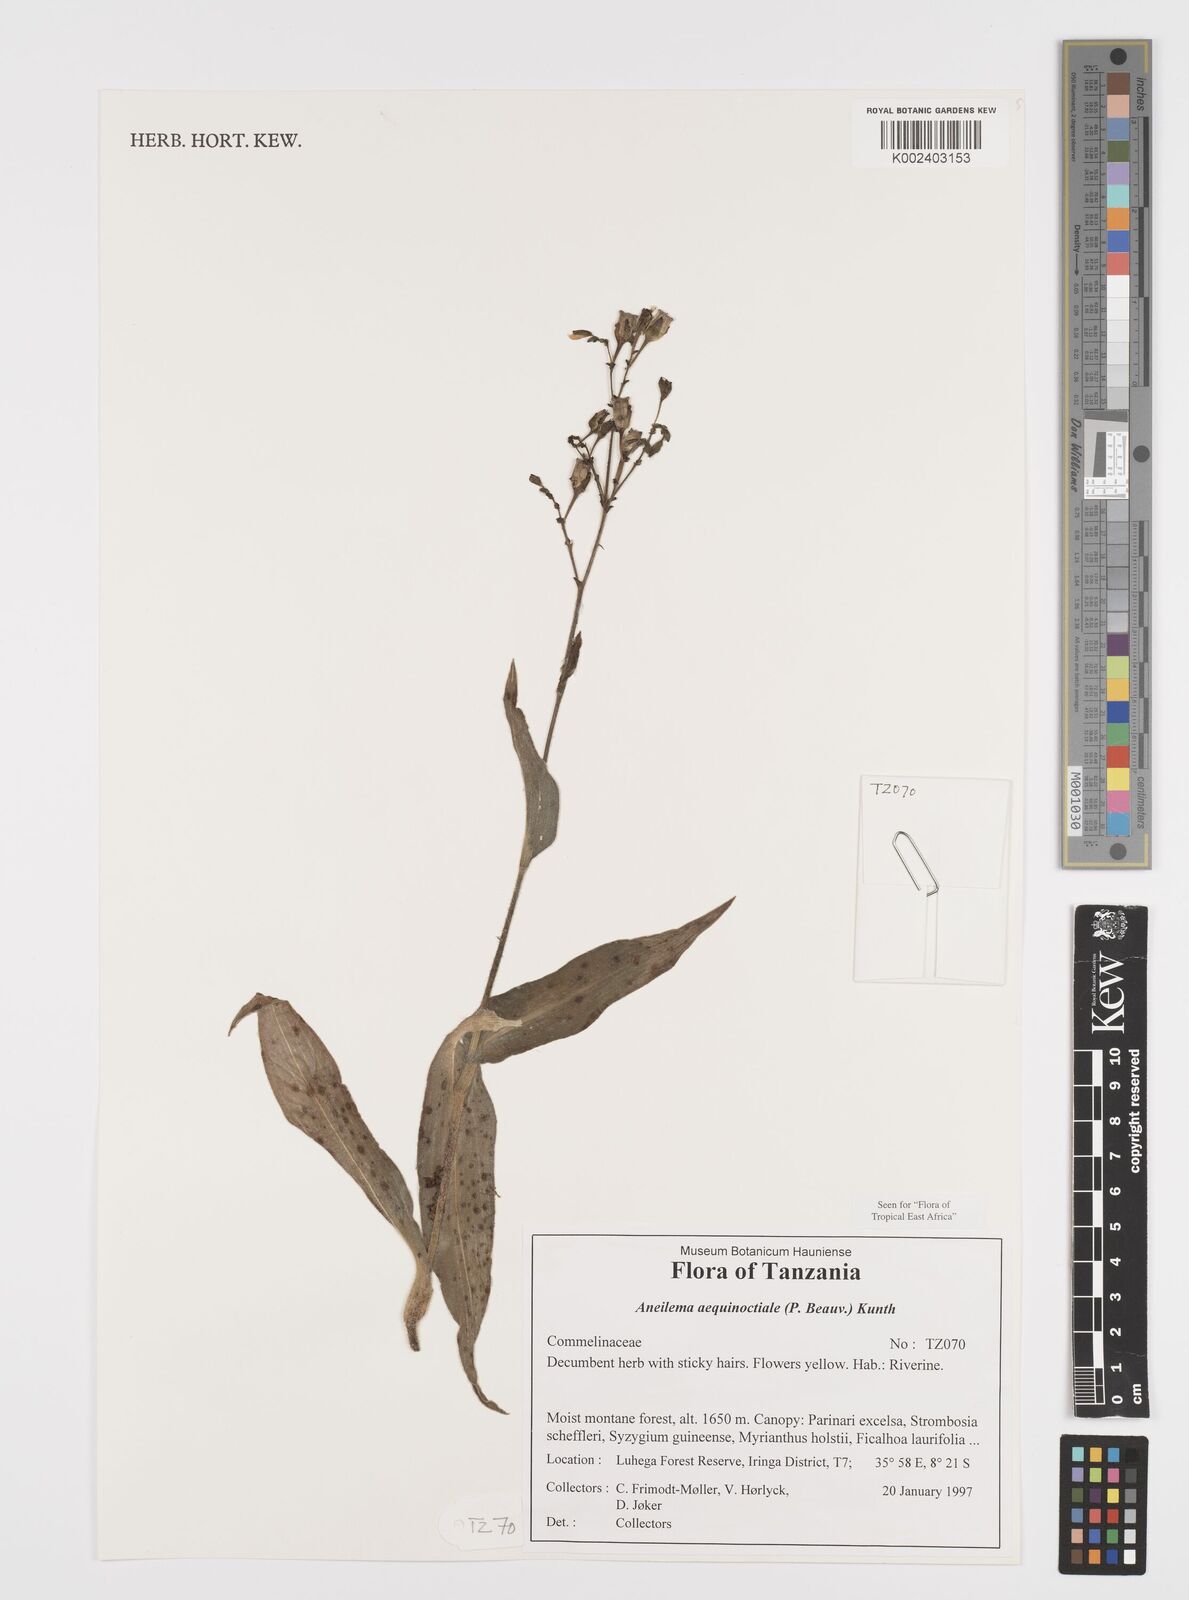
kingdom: Plantae
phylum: Tracheophyta
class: Liliopsida
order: Commelinales
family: Commelinaceae
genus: Aneilema
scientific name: Aneilema aequinoctiale
